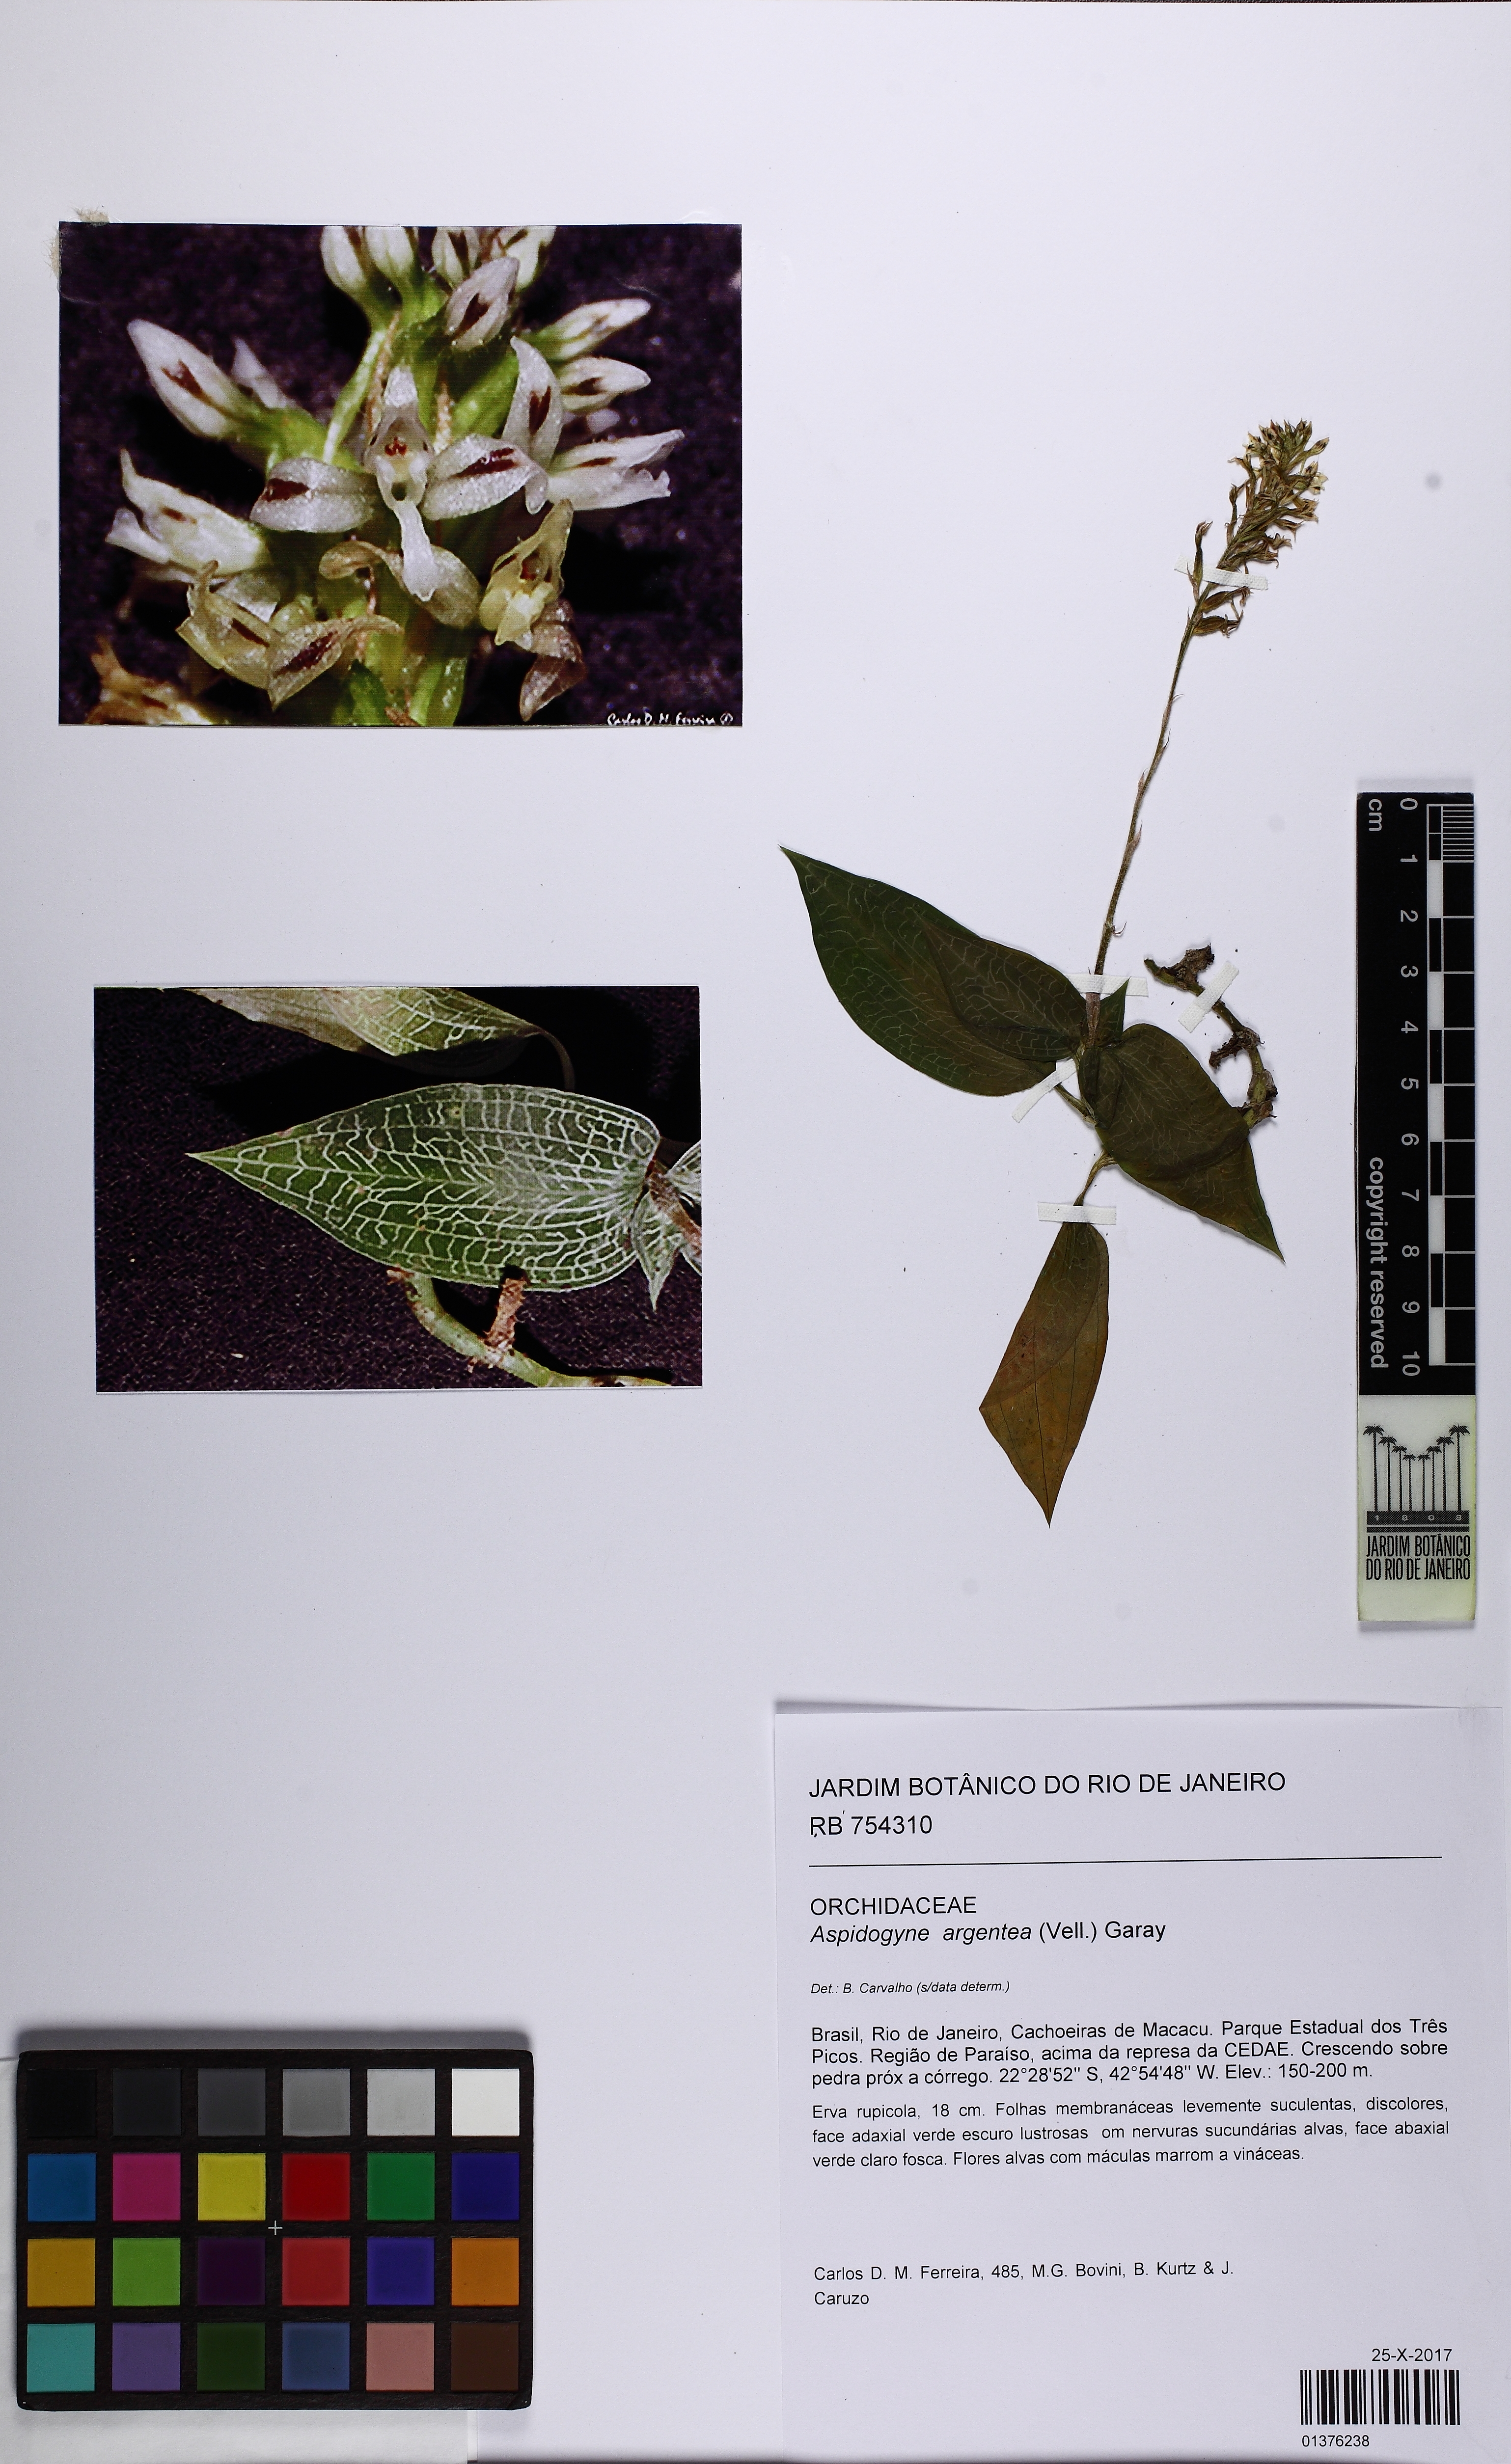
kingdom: Plantae
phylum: Tracheophyta
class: Liliopsida
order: Asparagales
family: Orchidaceae
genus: Aspidogyne
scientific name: Aspidogyne argentea
